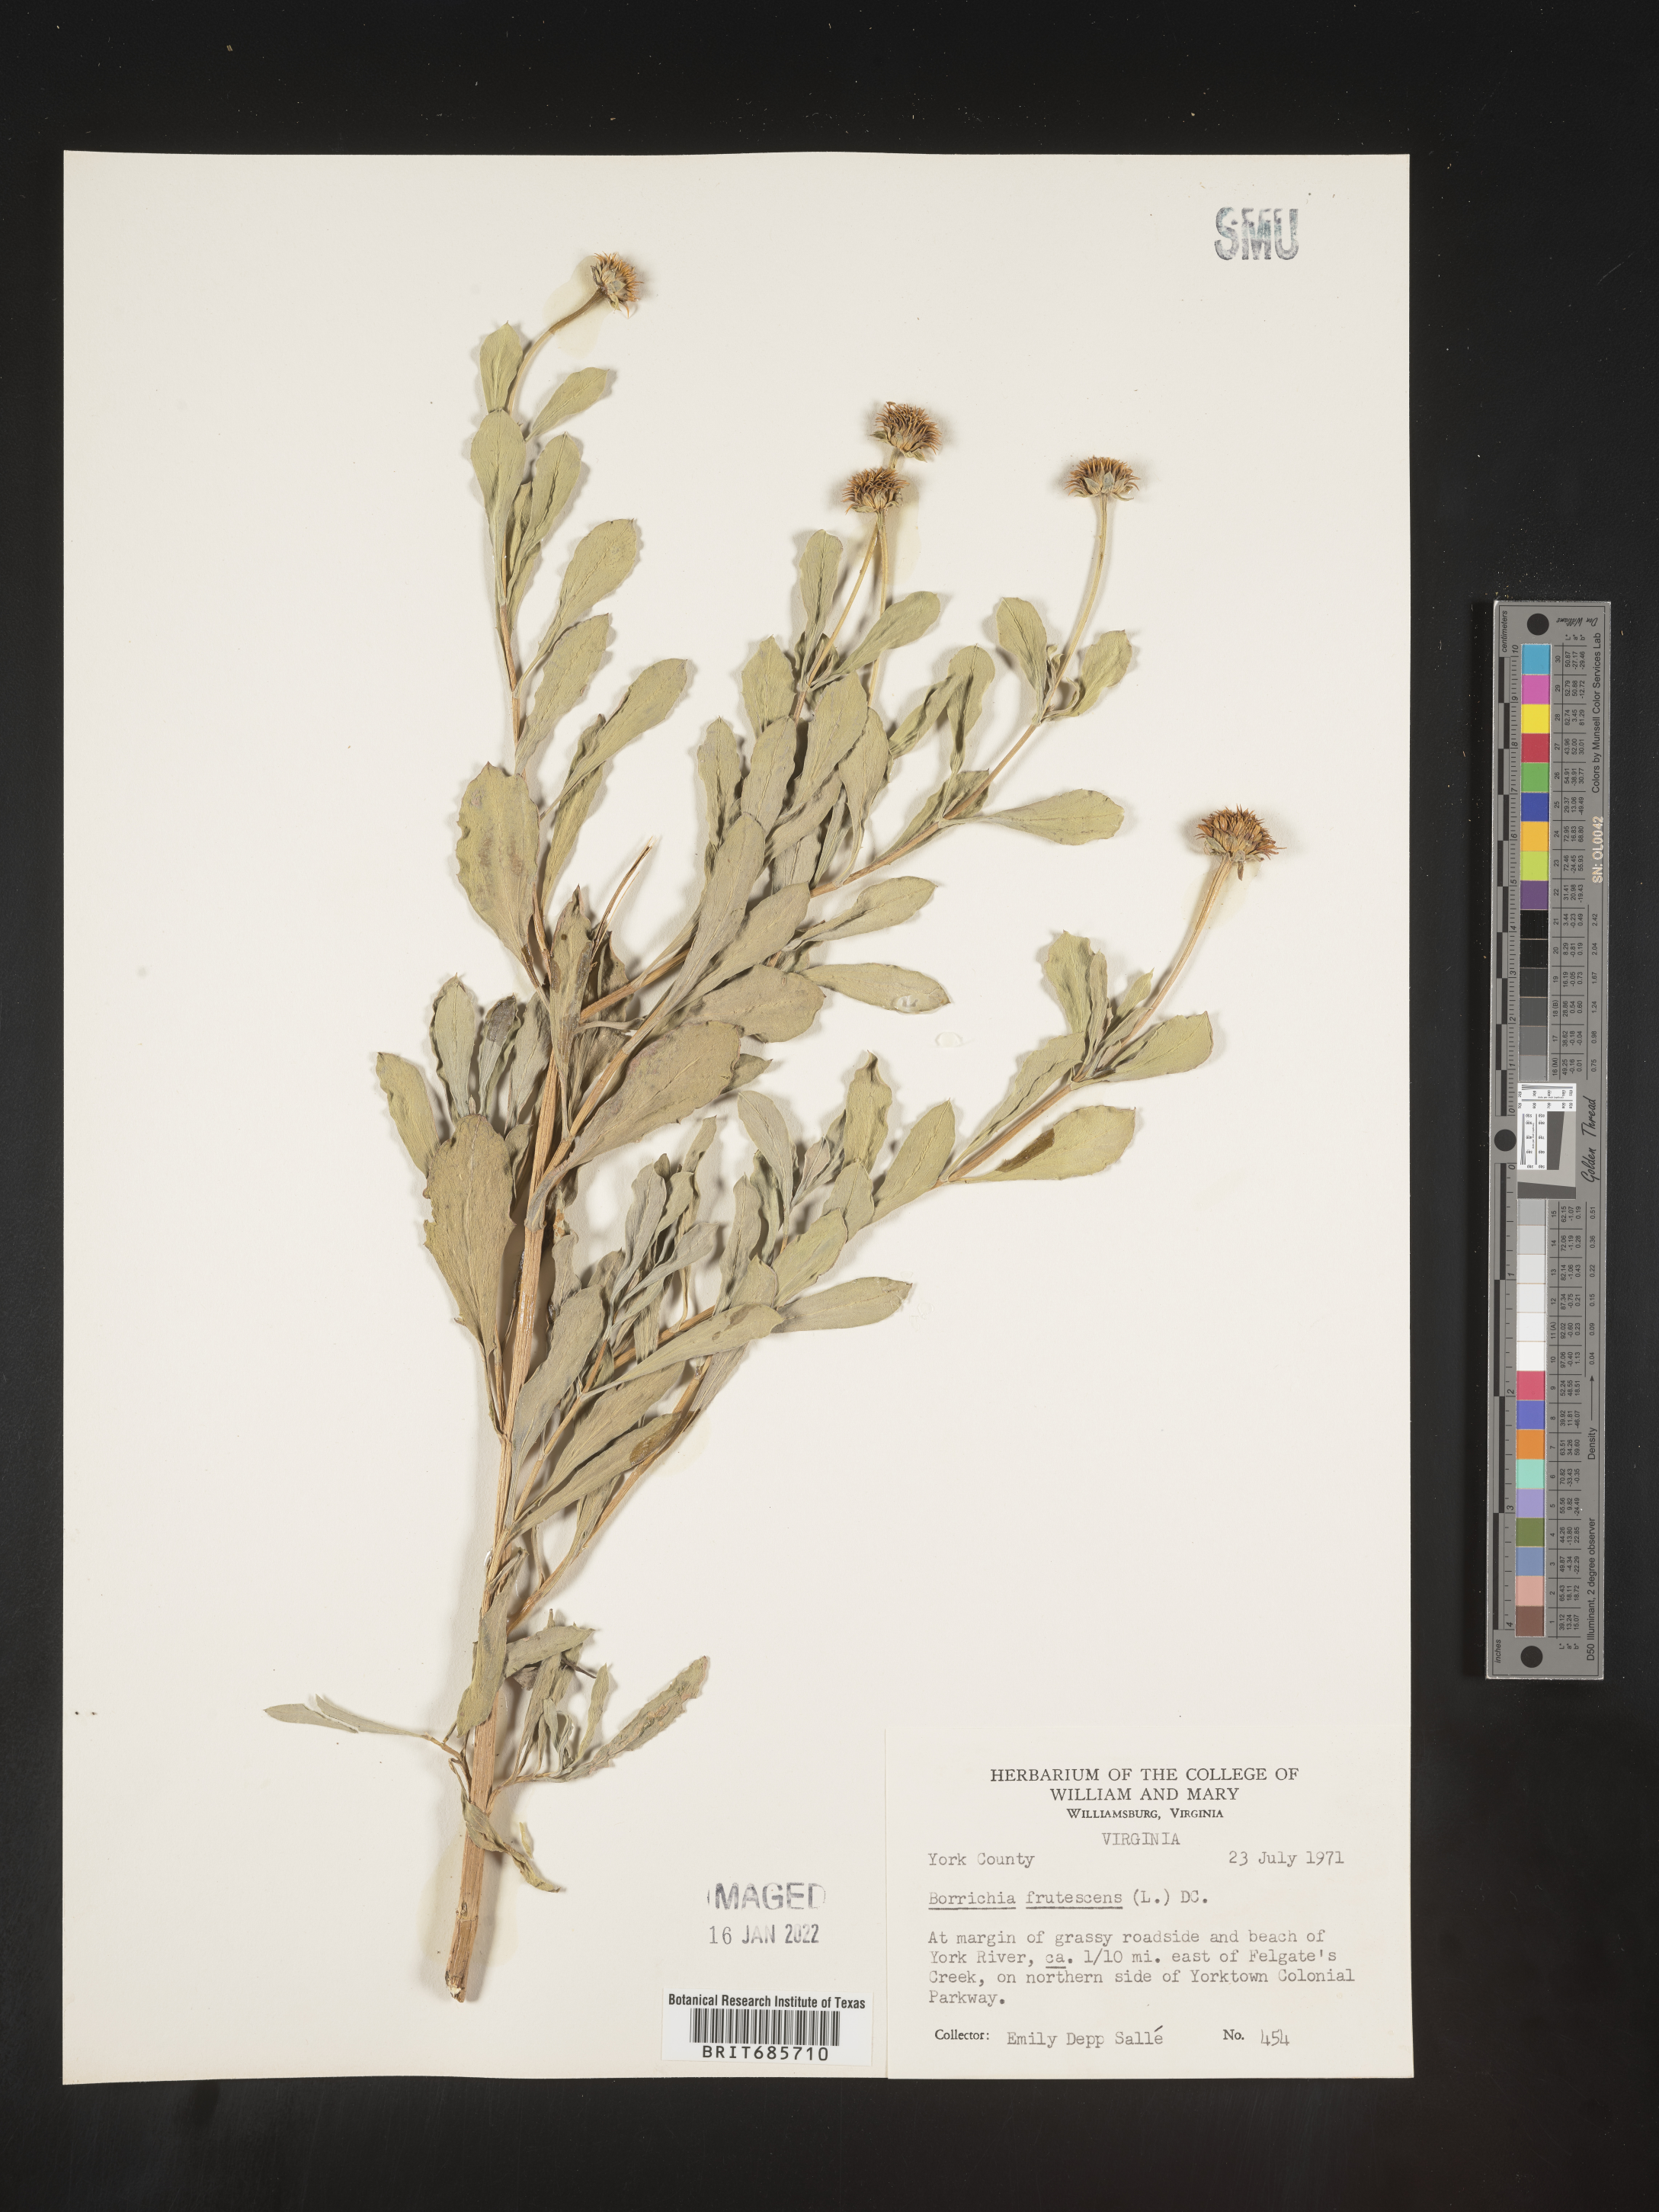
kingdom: Plantae
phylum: Tracheophyta
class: Magnoliopsida
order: Asterales
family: Asteraceae
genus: Borrichia
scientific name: Borrichia frutescens
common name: Sea oxeye
